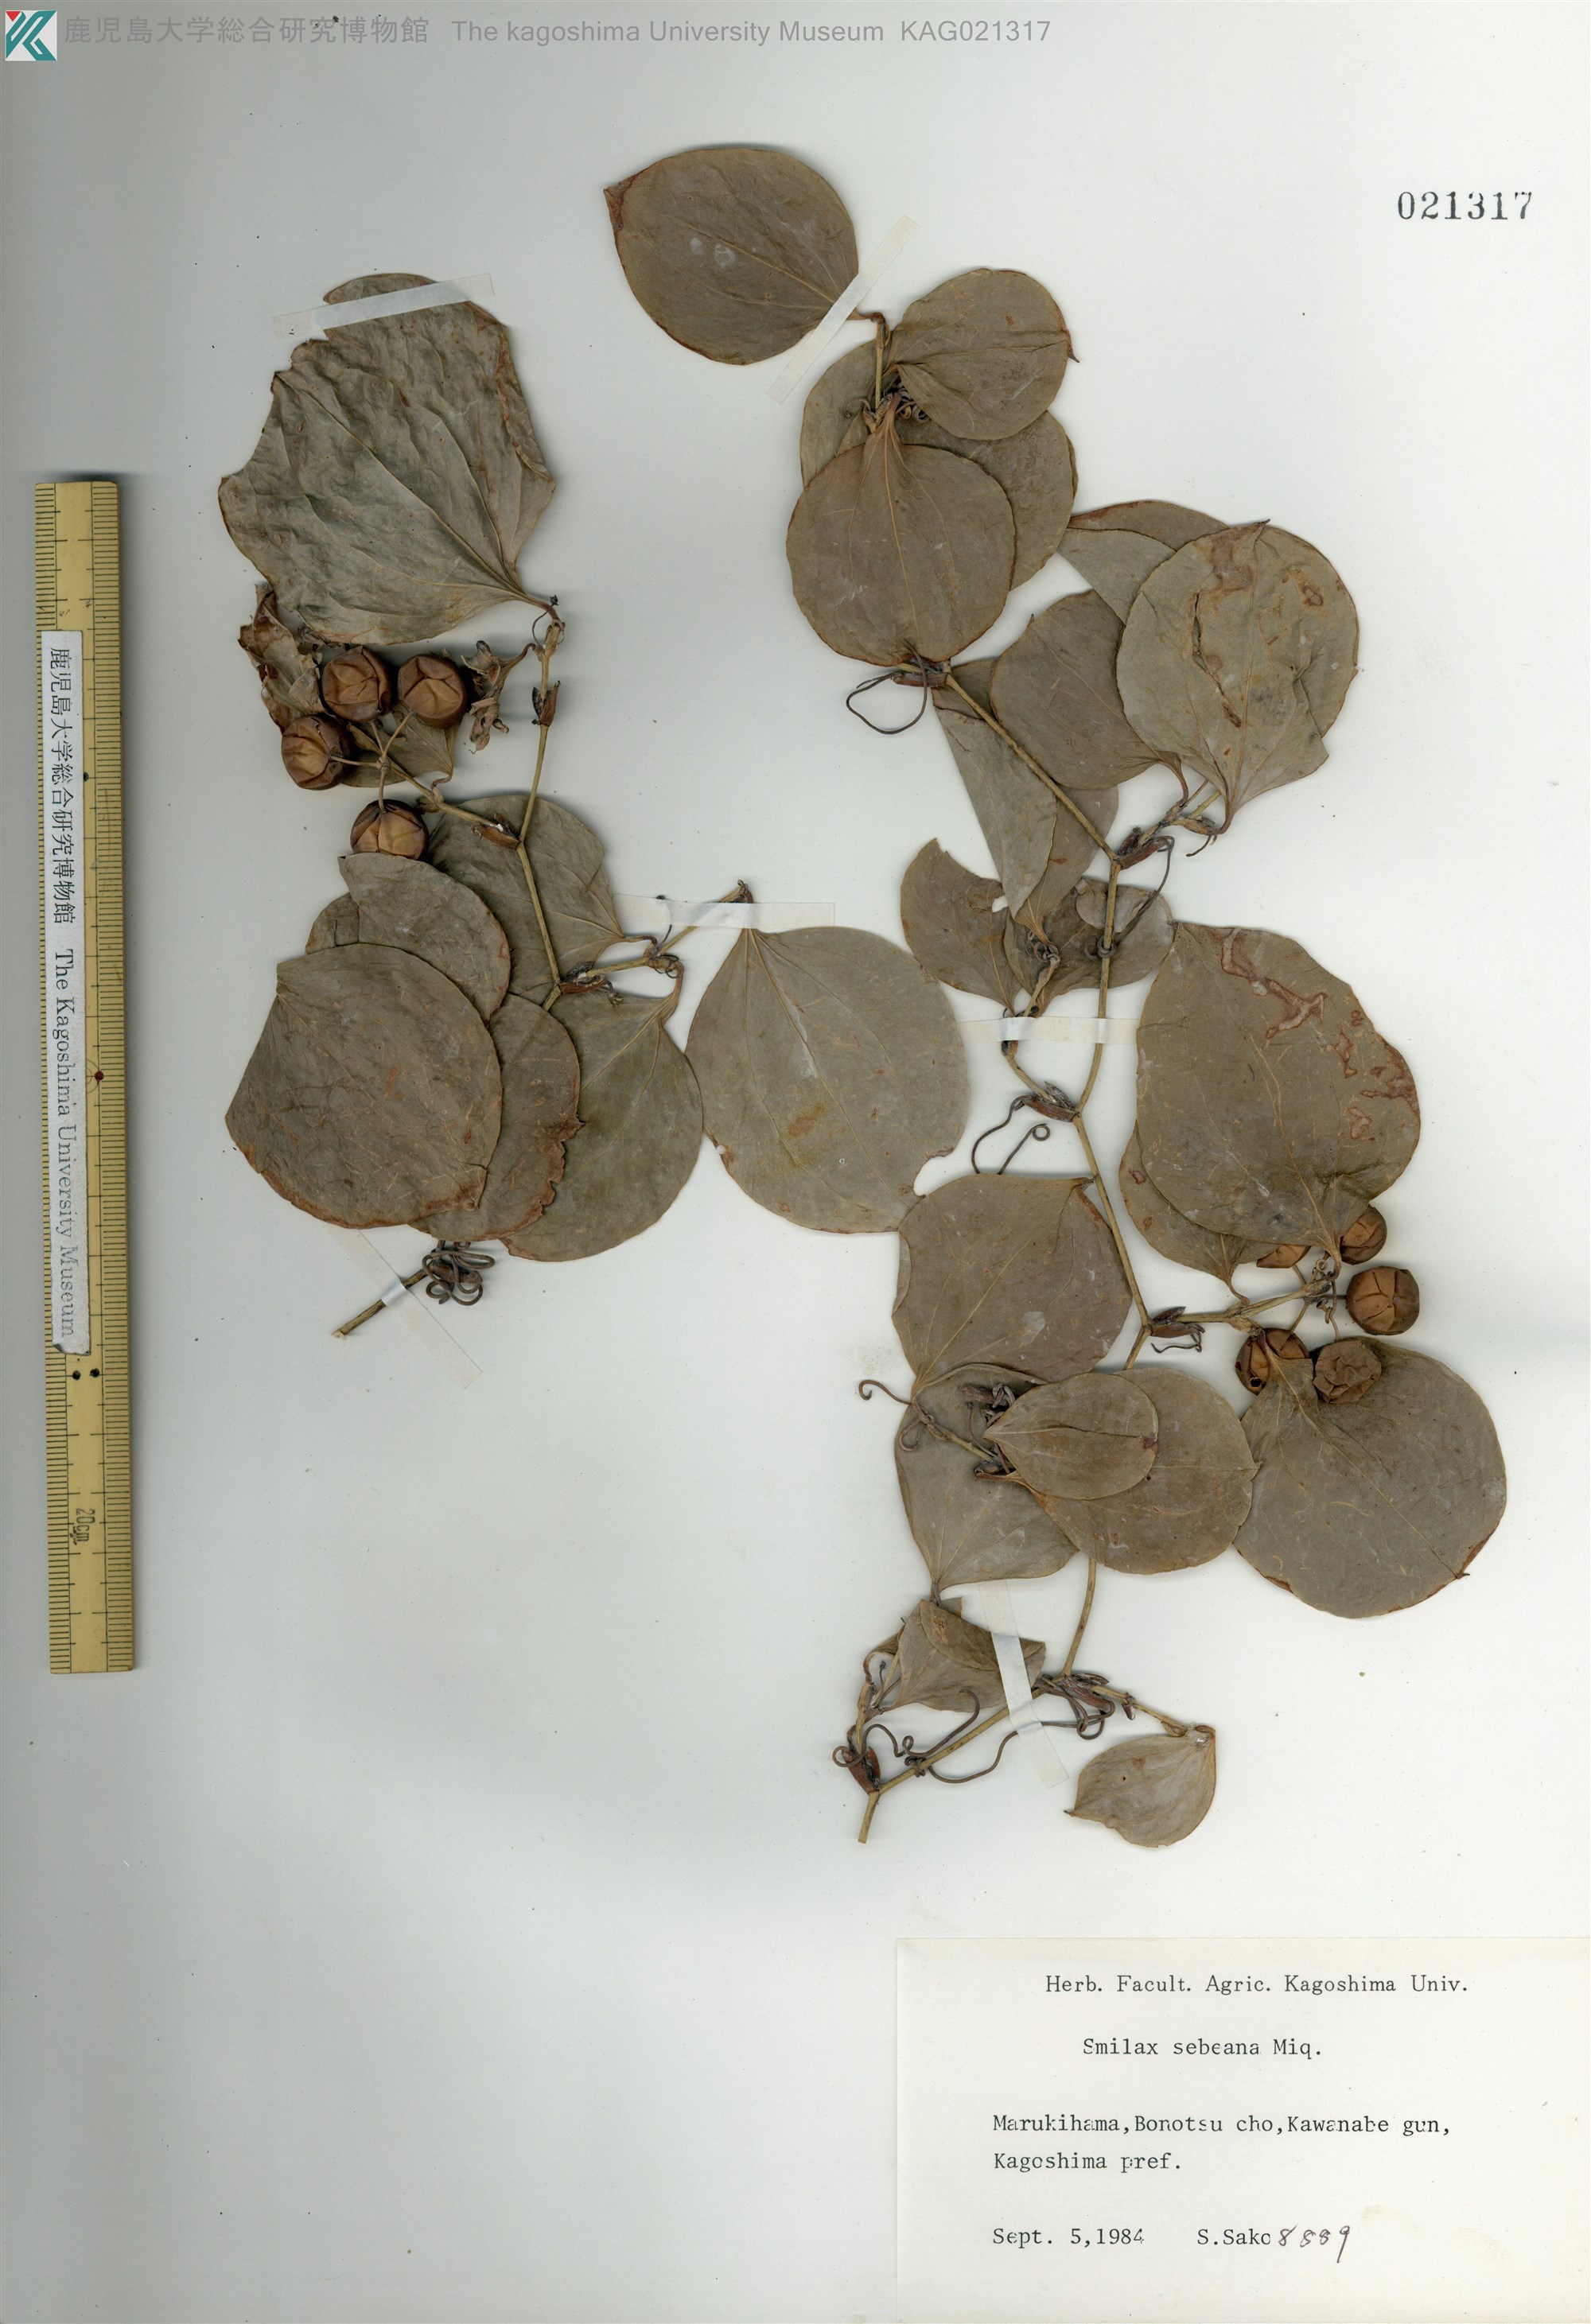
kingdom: Plantae
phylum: Tracheophyta
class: Liliopsida
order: Liliales
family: Smilacaceae
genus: Smilax
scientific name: Smilax sebeana
